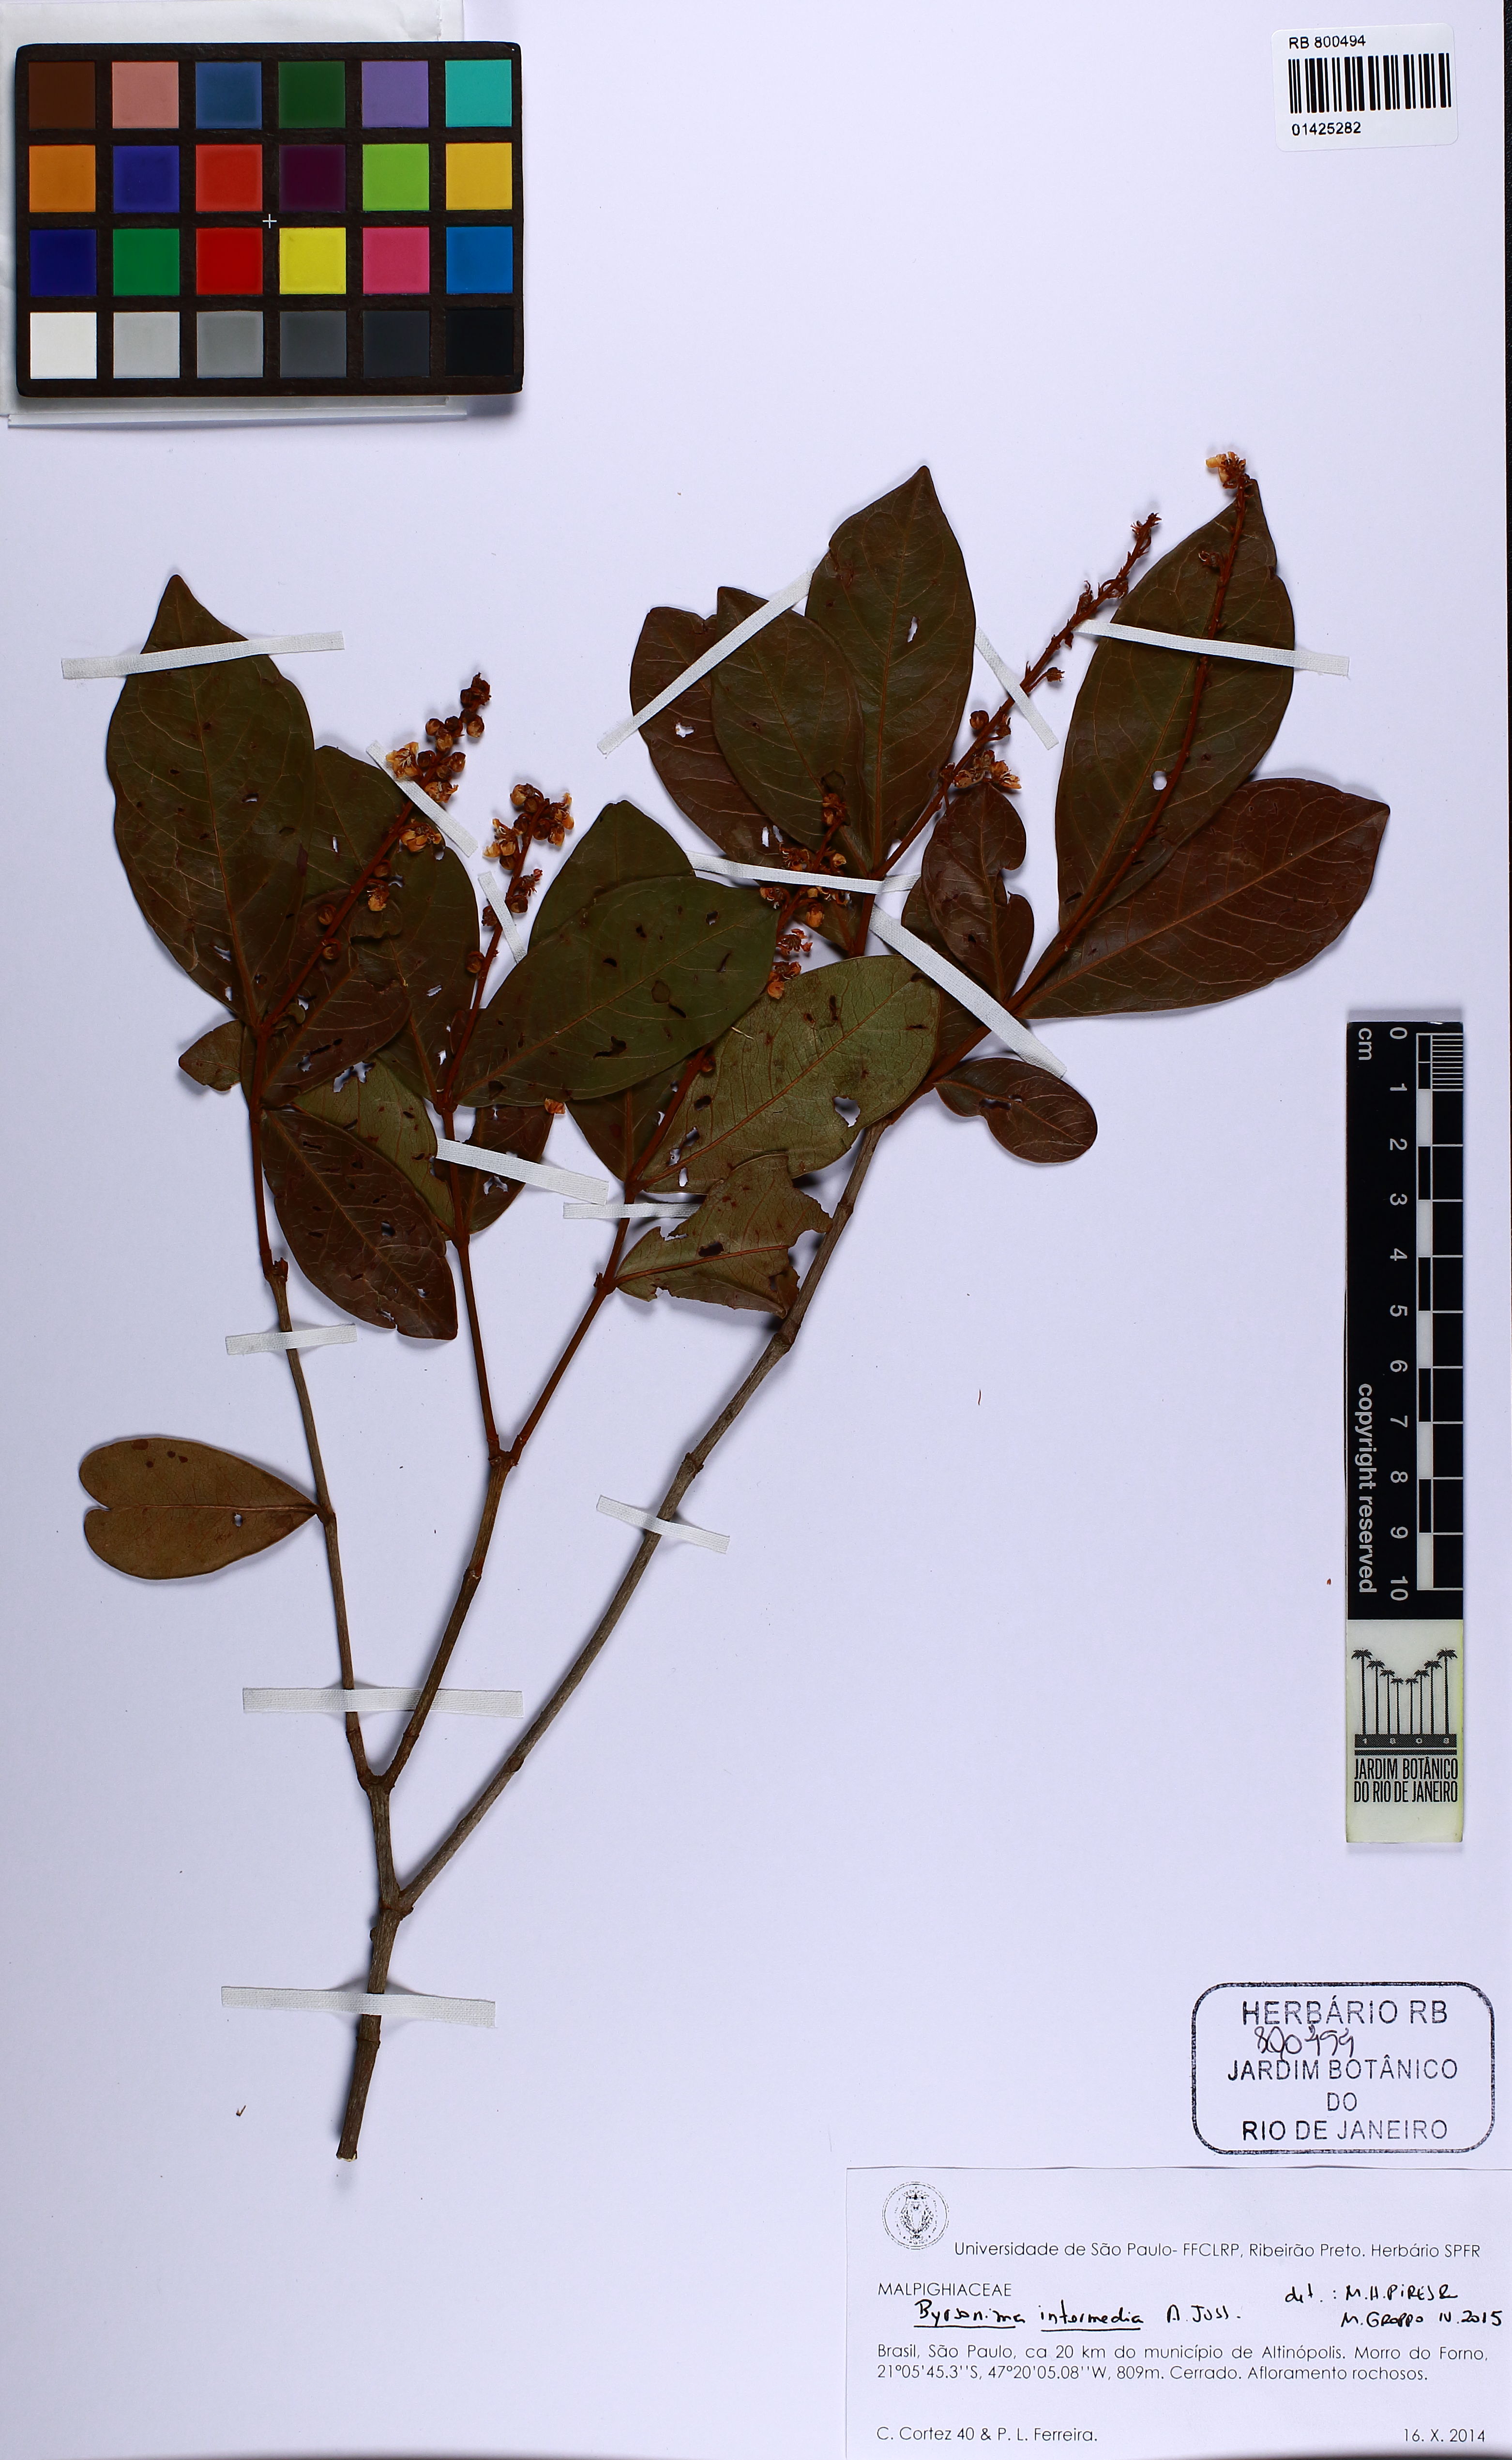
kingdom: Plantae
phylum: Tracheophyta
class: Magnoliopsida
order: Malpighiales
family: Malpighiaceae
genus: Byrsonima
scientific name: Byrsonima intermedia
